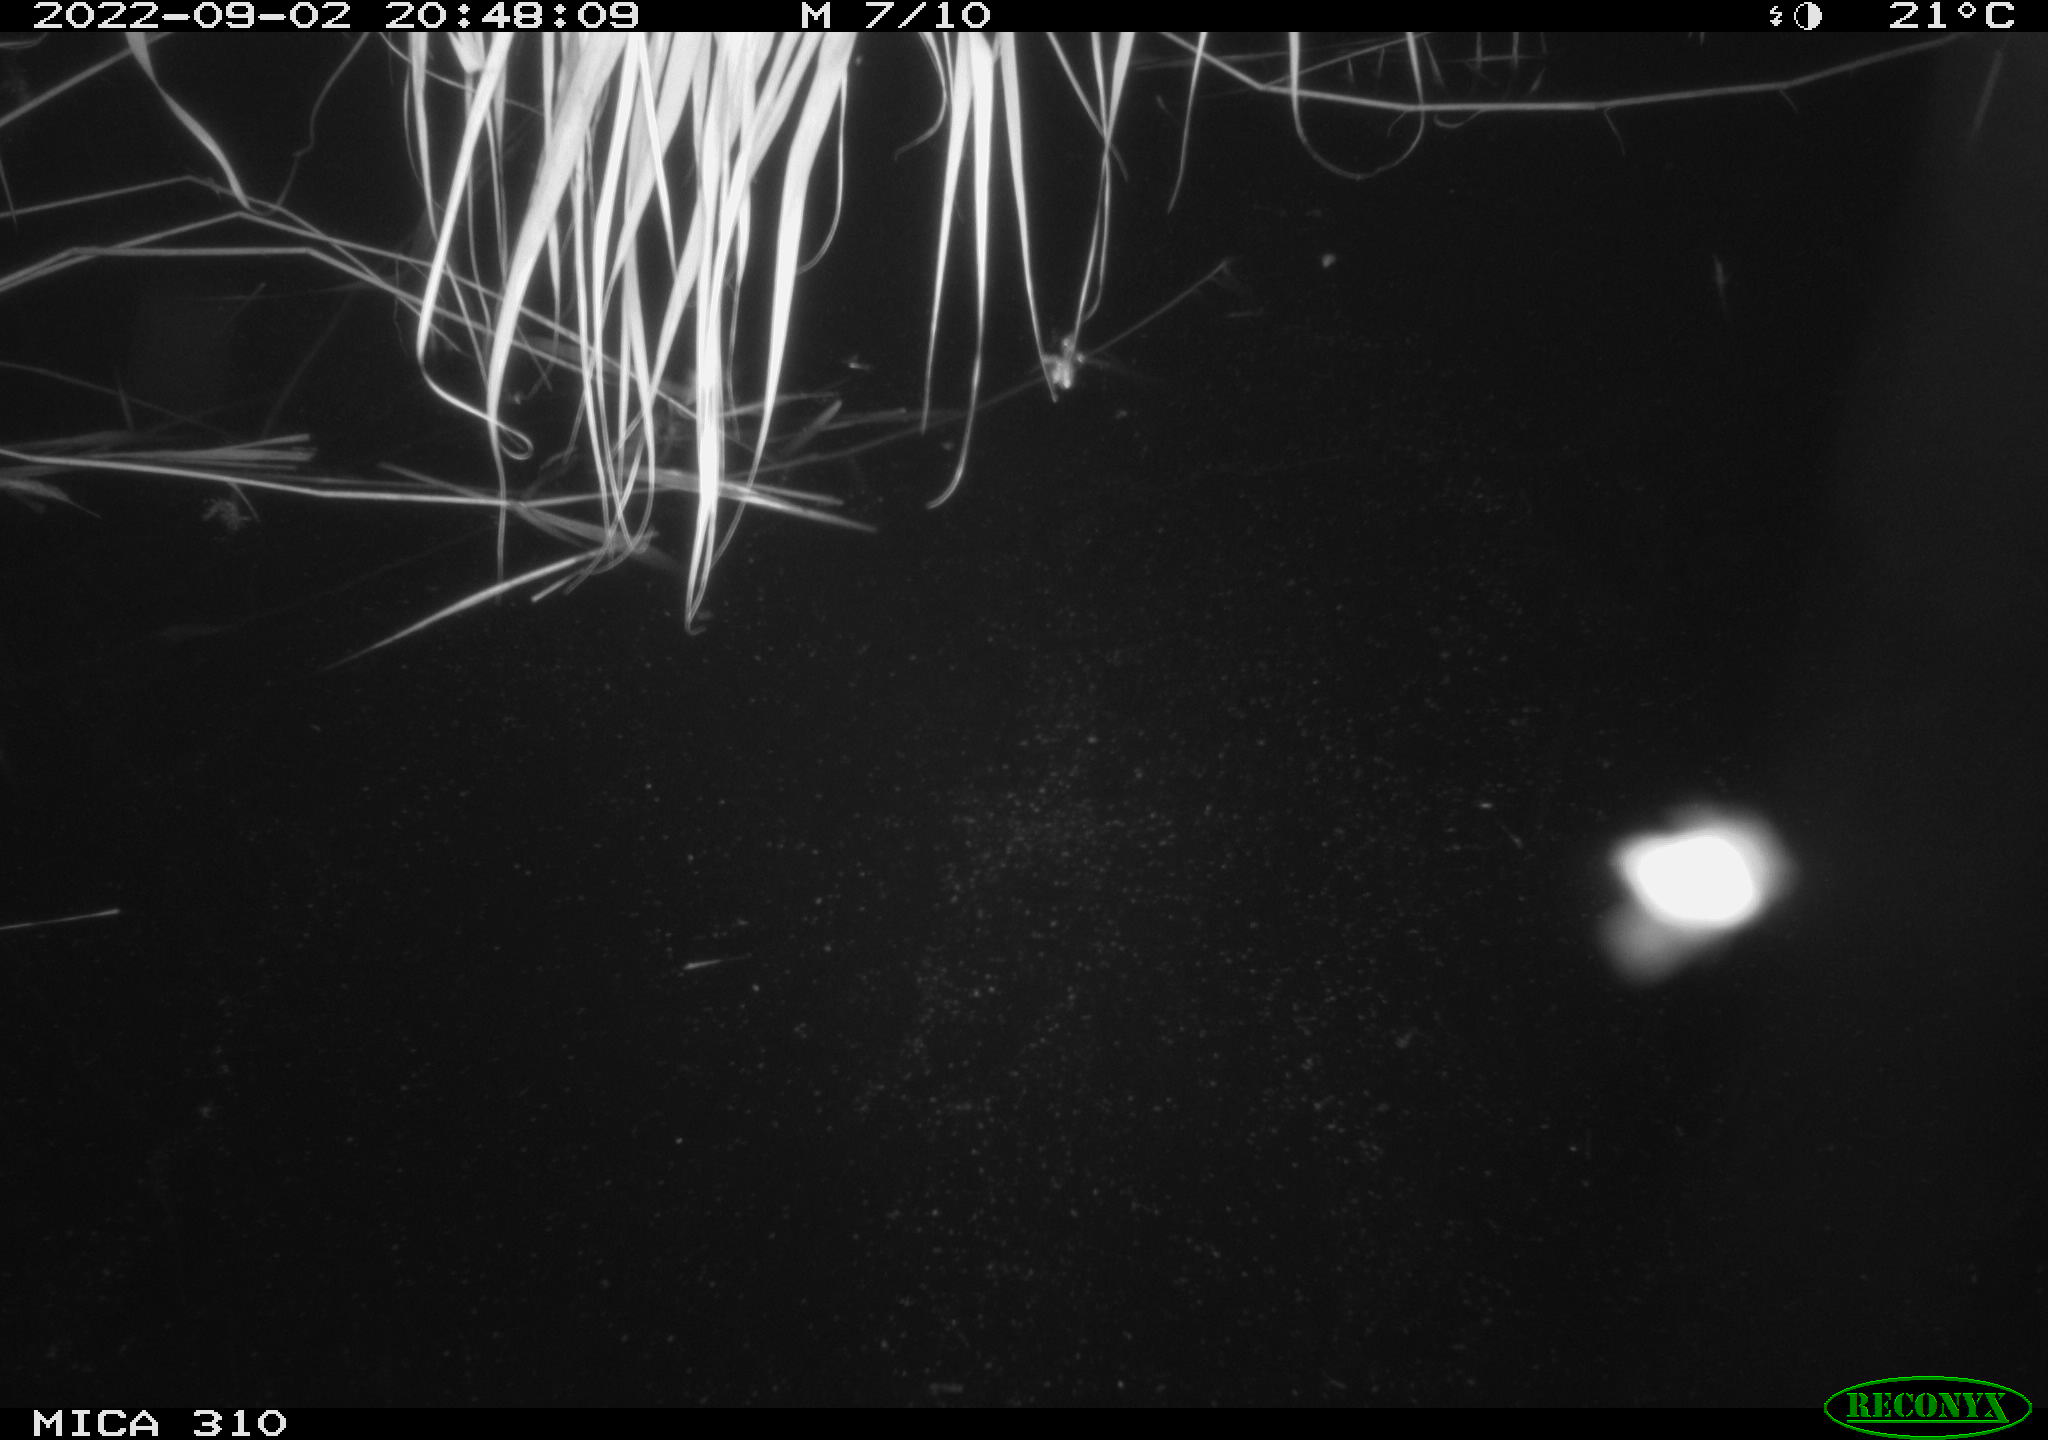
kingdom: Animalia
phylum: Chordata
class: Aves
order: Anseriformes
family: Anatidae
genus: Anas
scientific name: Anas platyrhynchos
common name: Mallard
